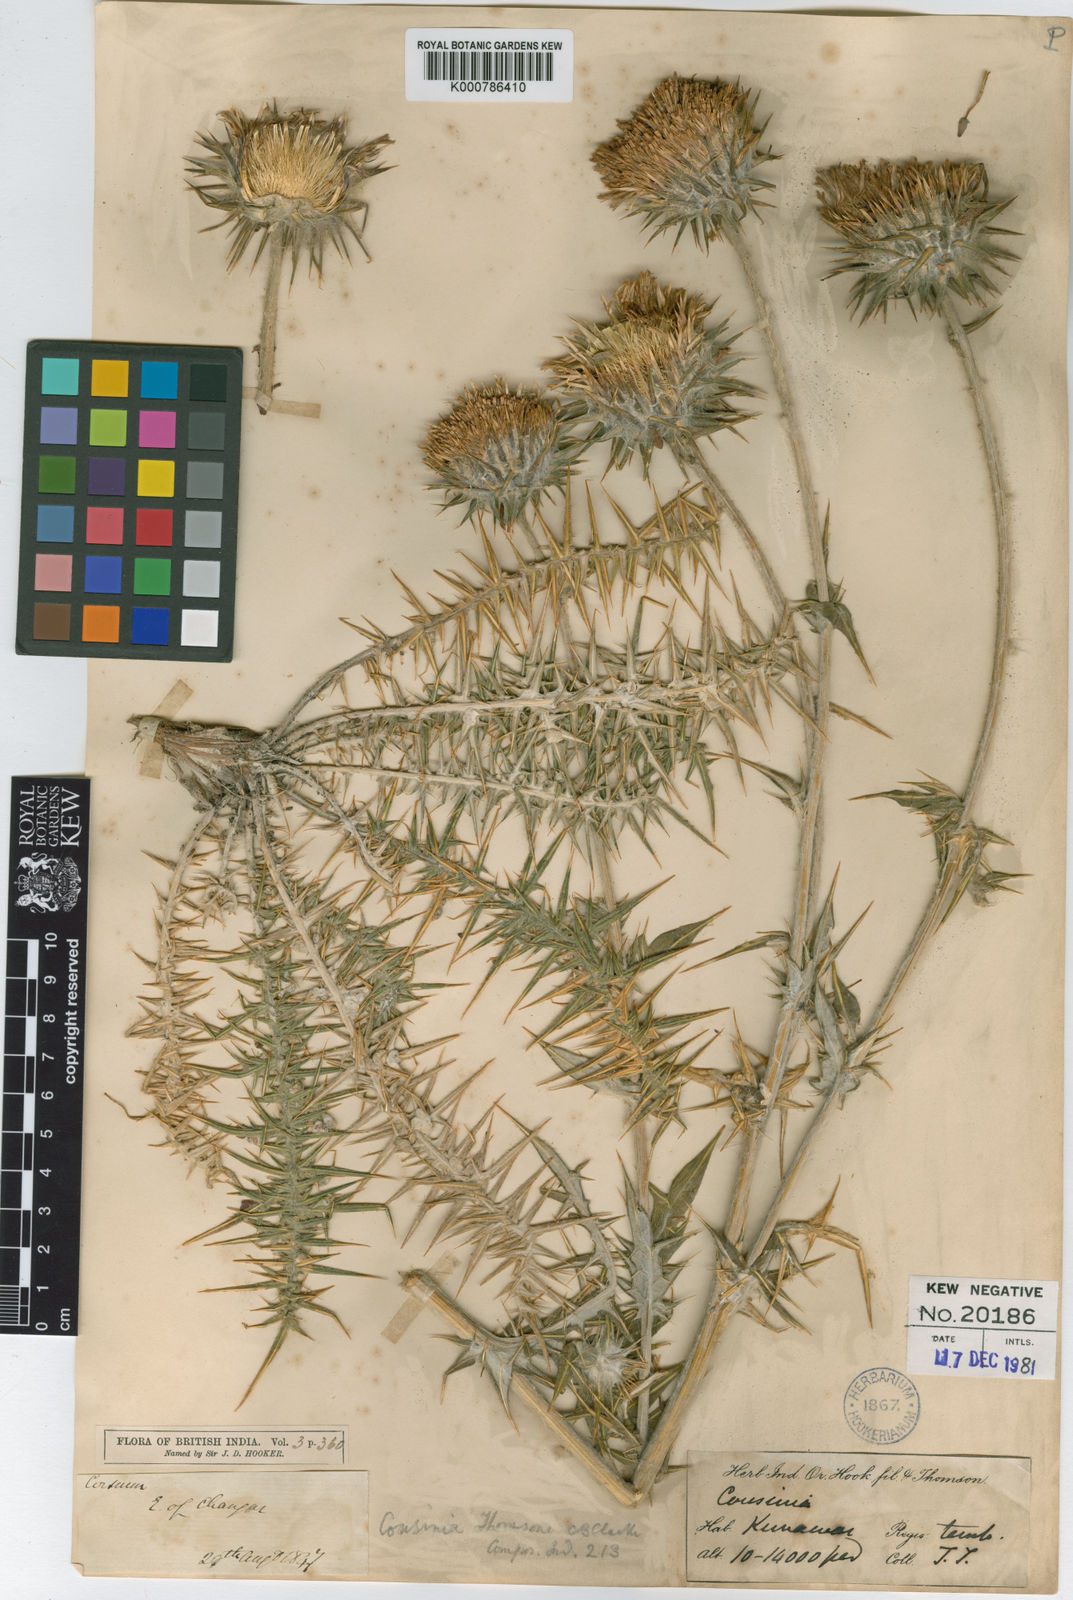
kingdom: Plantae
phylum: Tracheophyta
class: Magnoliopsida
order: Asterales
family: Asteraceae
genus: Cousinia
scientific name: Cousinia thomsonii
